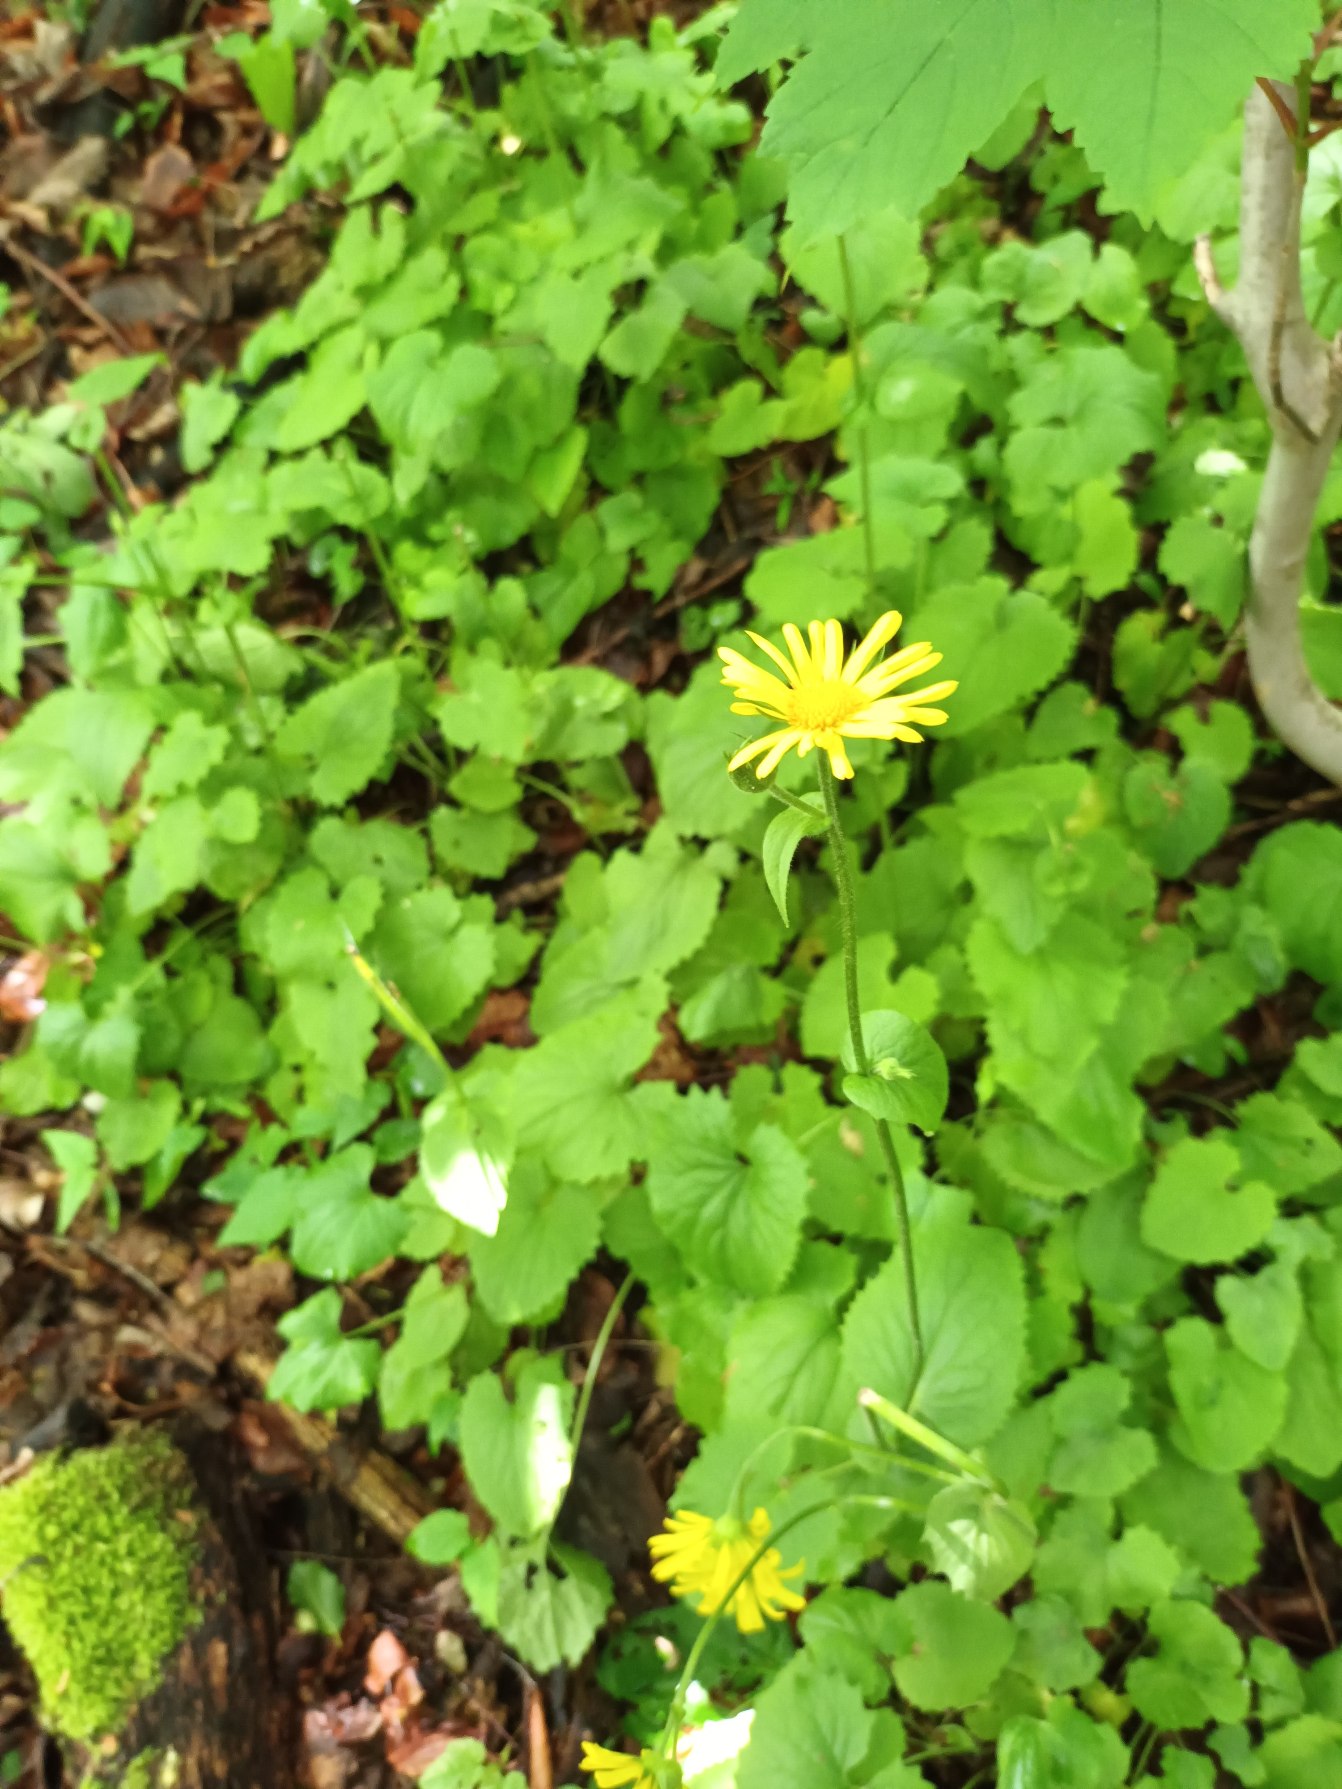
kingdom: Plantae
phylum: Tracheophyta
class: Magnoliopsida
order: Asterales
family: Asteraceae
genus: Doronicum
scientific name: Doronicum pardalianches
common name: Hjertebladet gemserod
